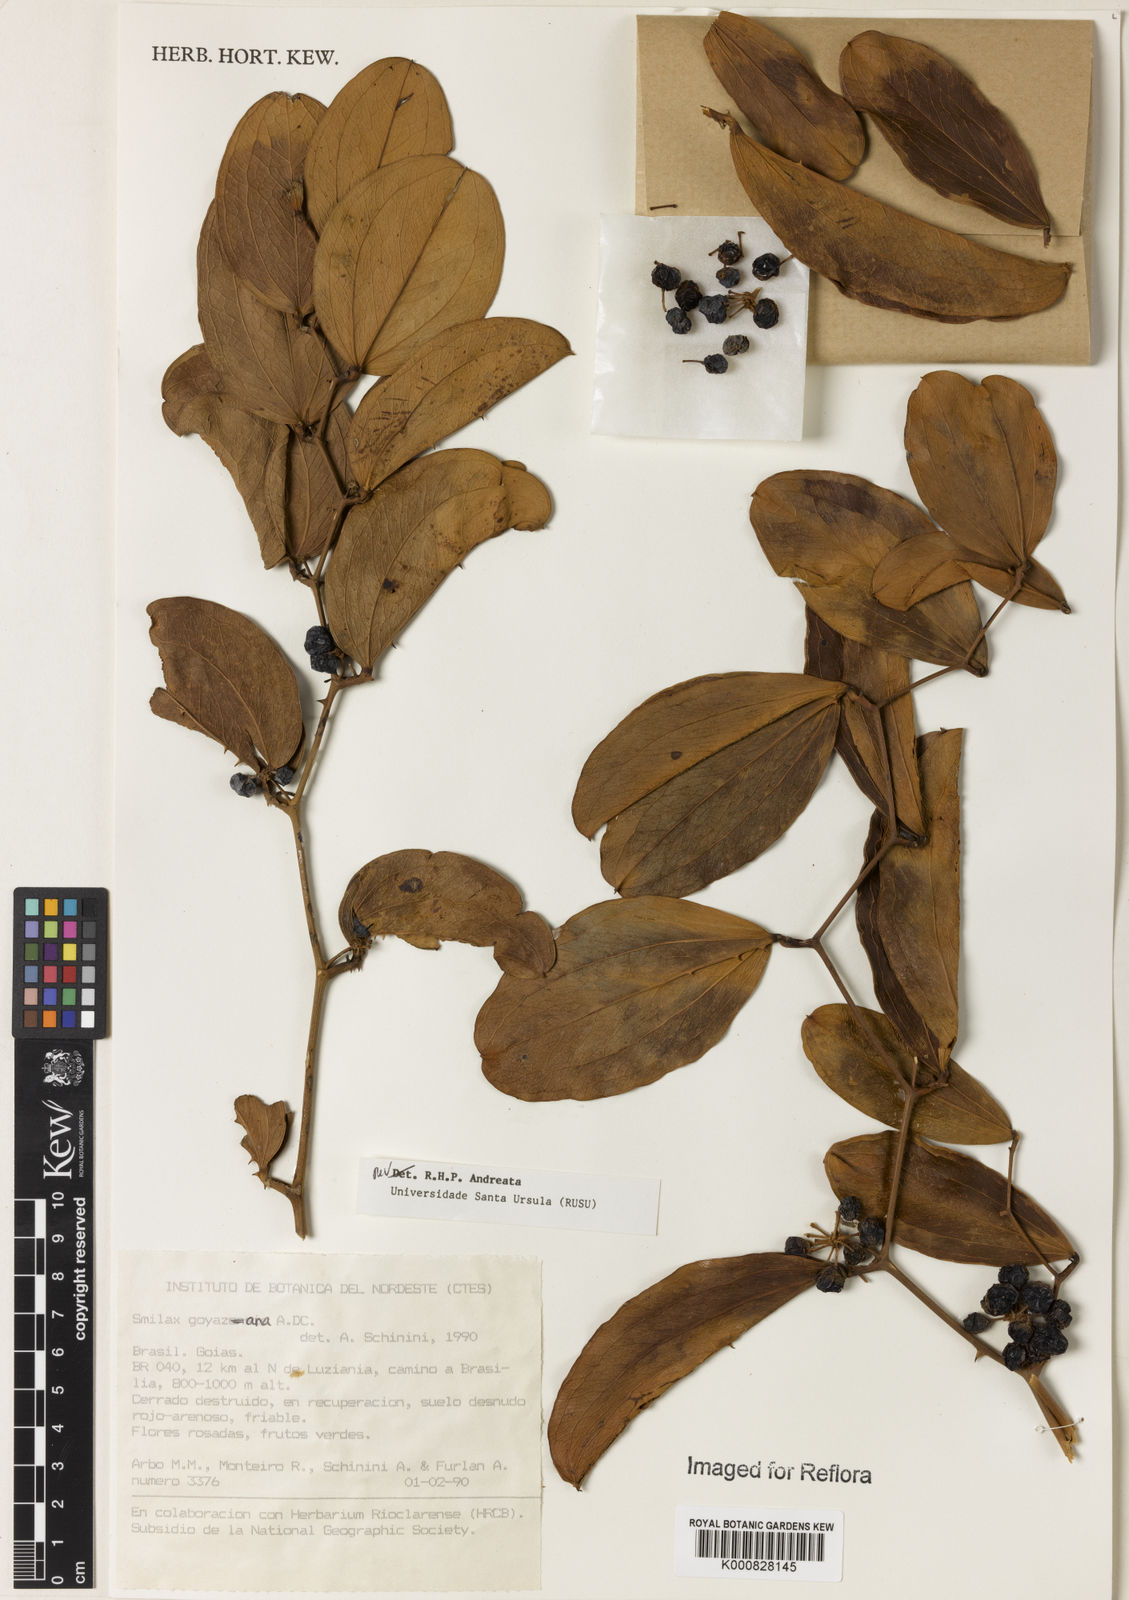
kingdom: Plantae
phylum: Tracheophyta
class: Liliopsida
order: Liliales
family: Smilacaceae
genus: Smilax
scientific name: Smilax goyazana
